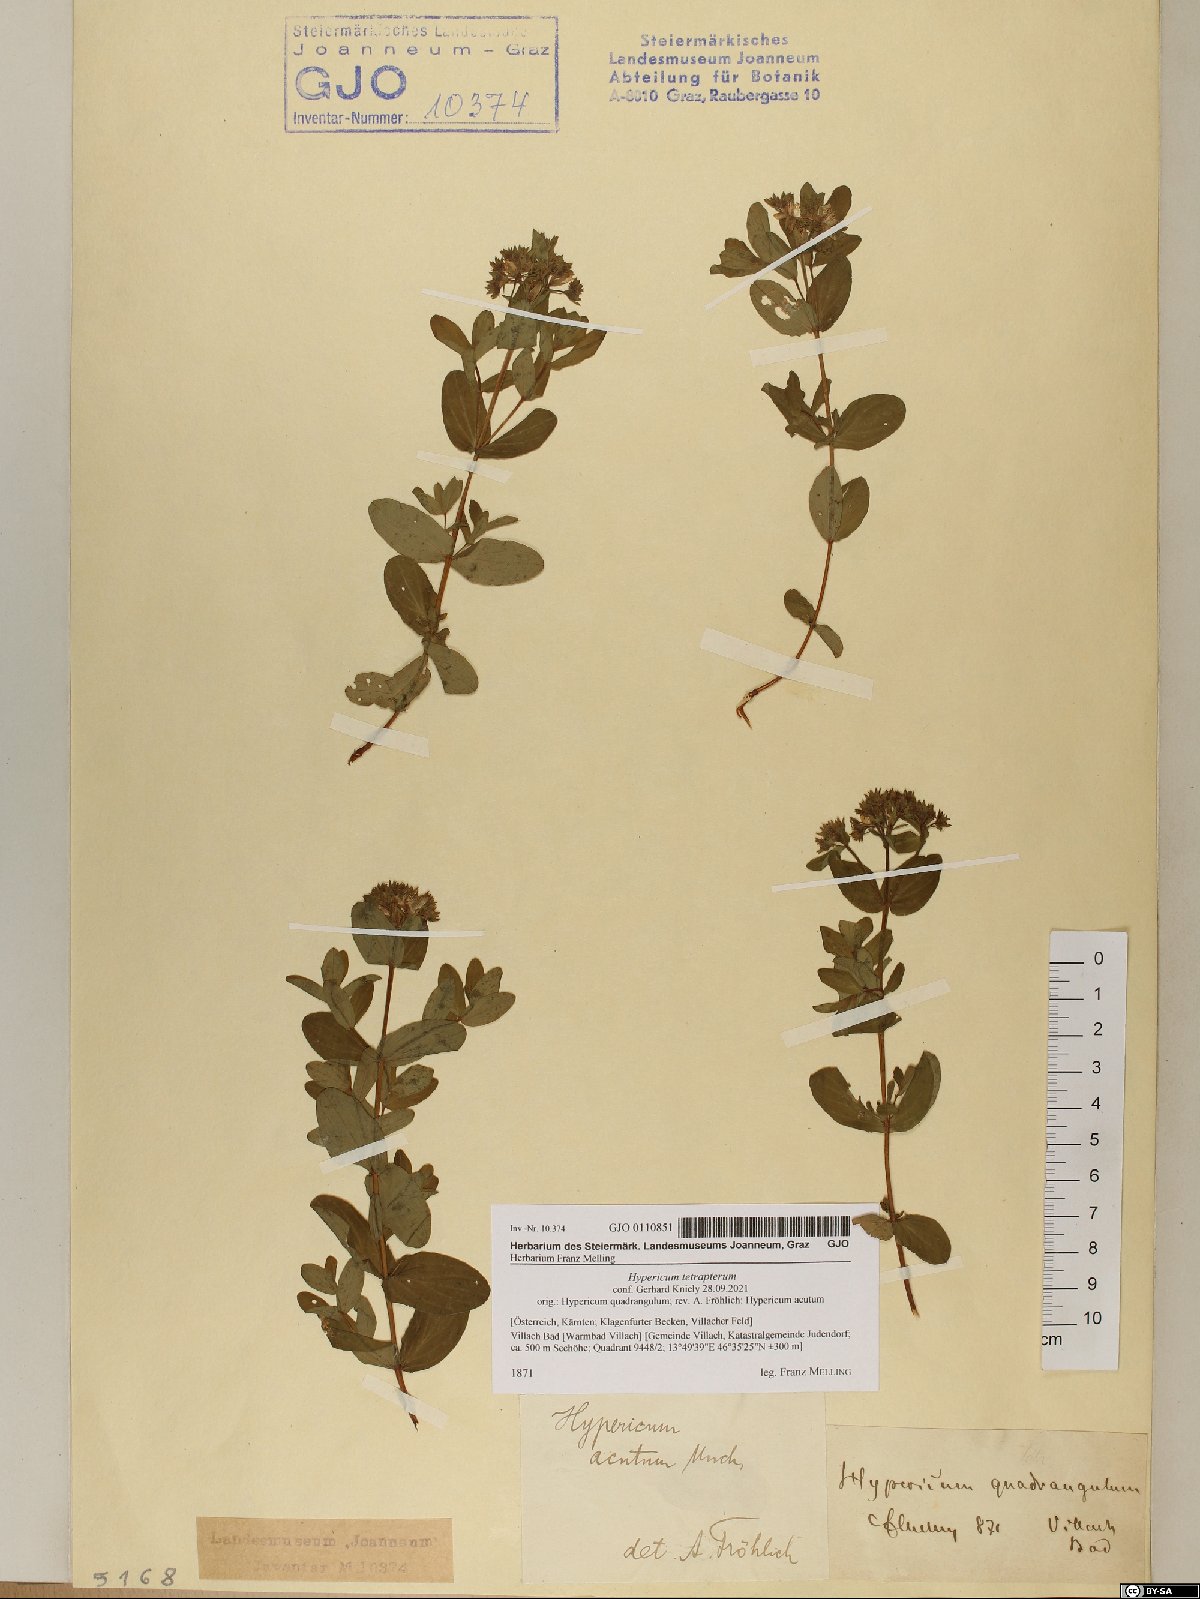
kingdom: Plantae
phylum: Tracheophyta
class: Magnoliopsida
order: Malpighiales
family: Hypericaceae
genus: Hypericum
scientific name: Hypericum tetrapterum
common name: Square-stalked st. john's-wort
